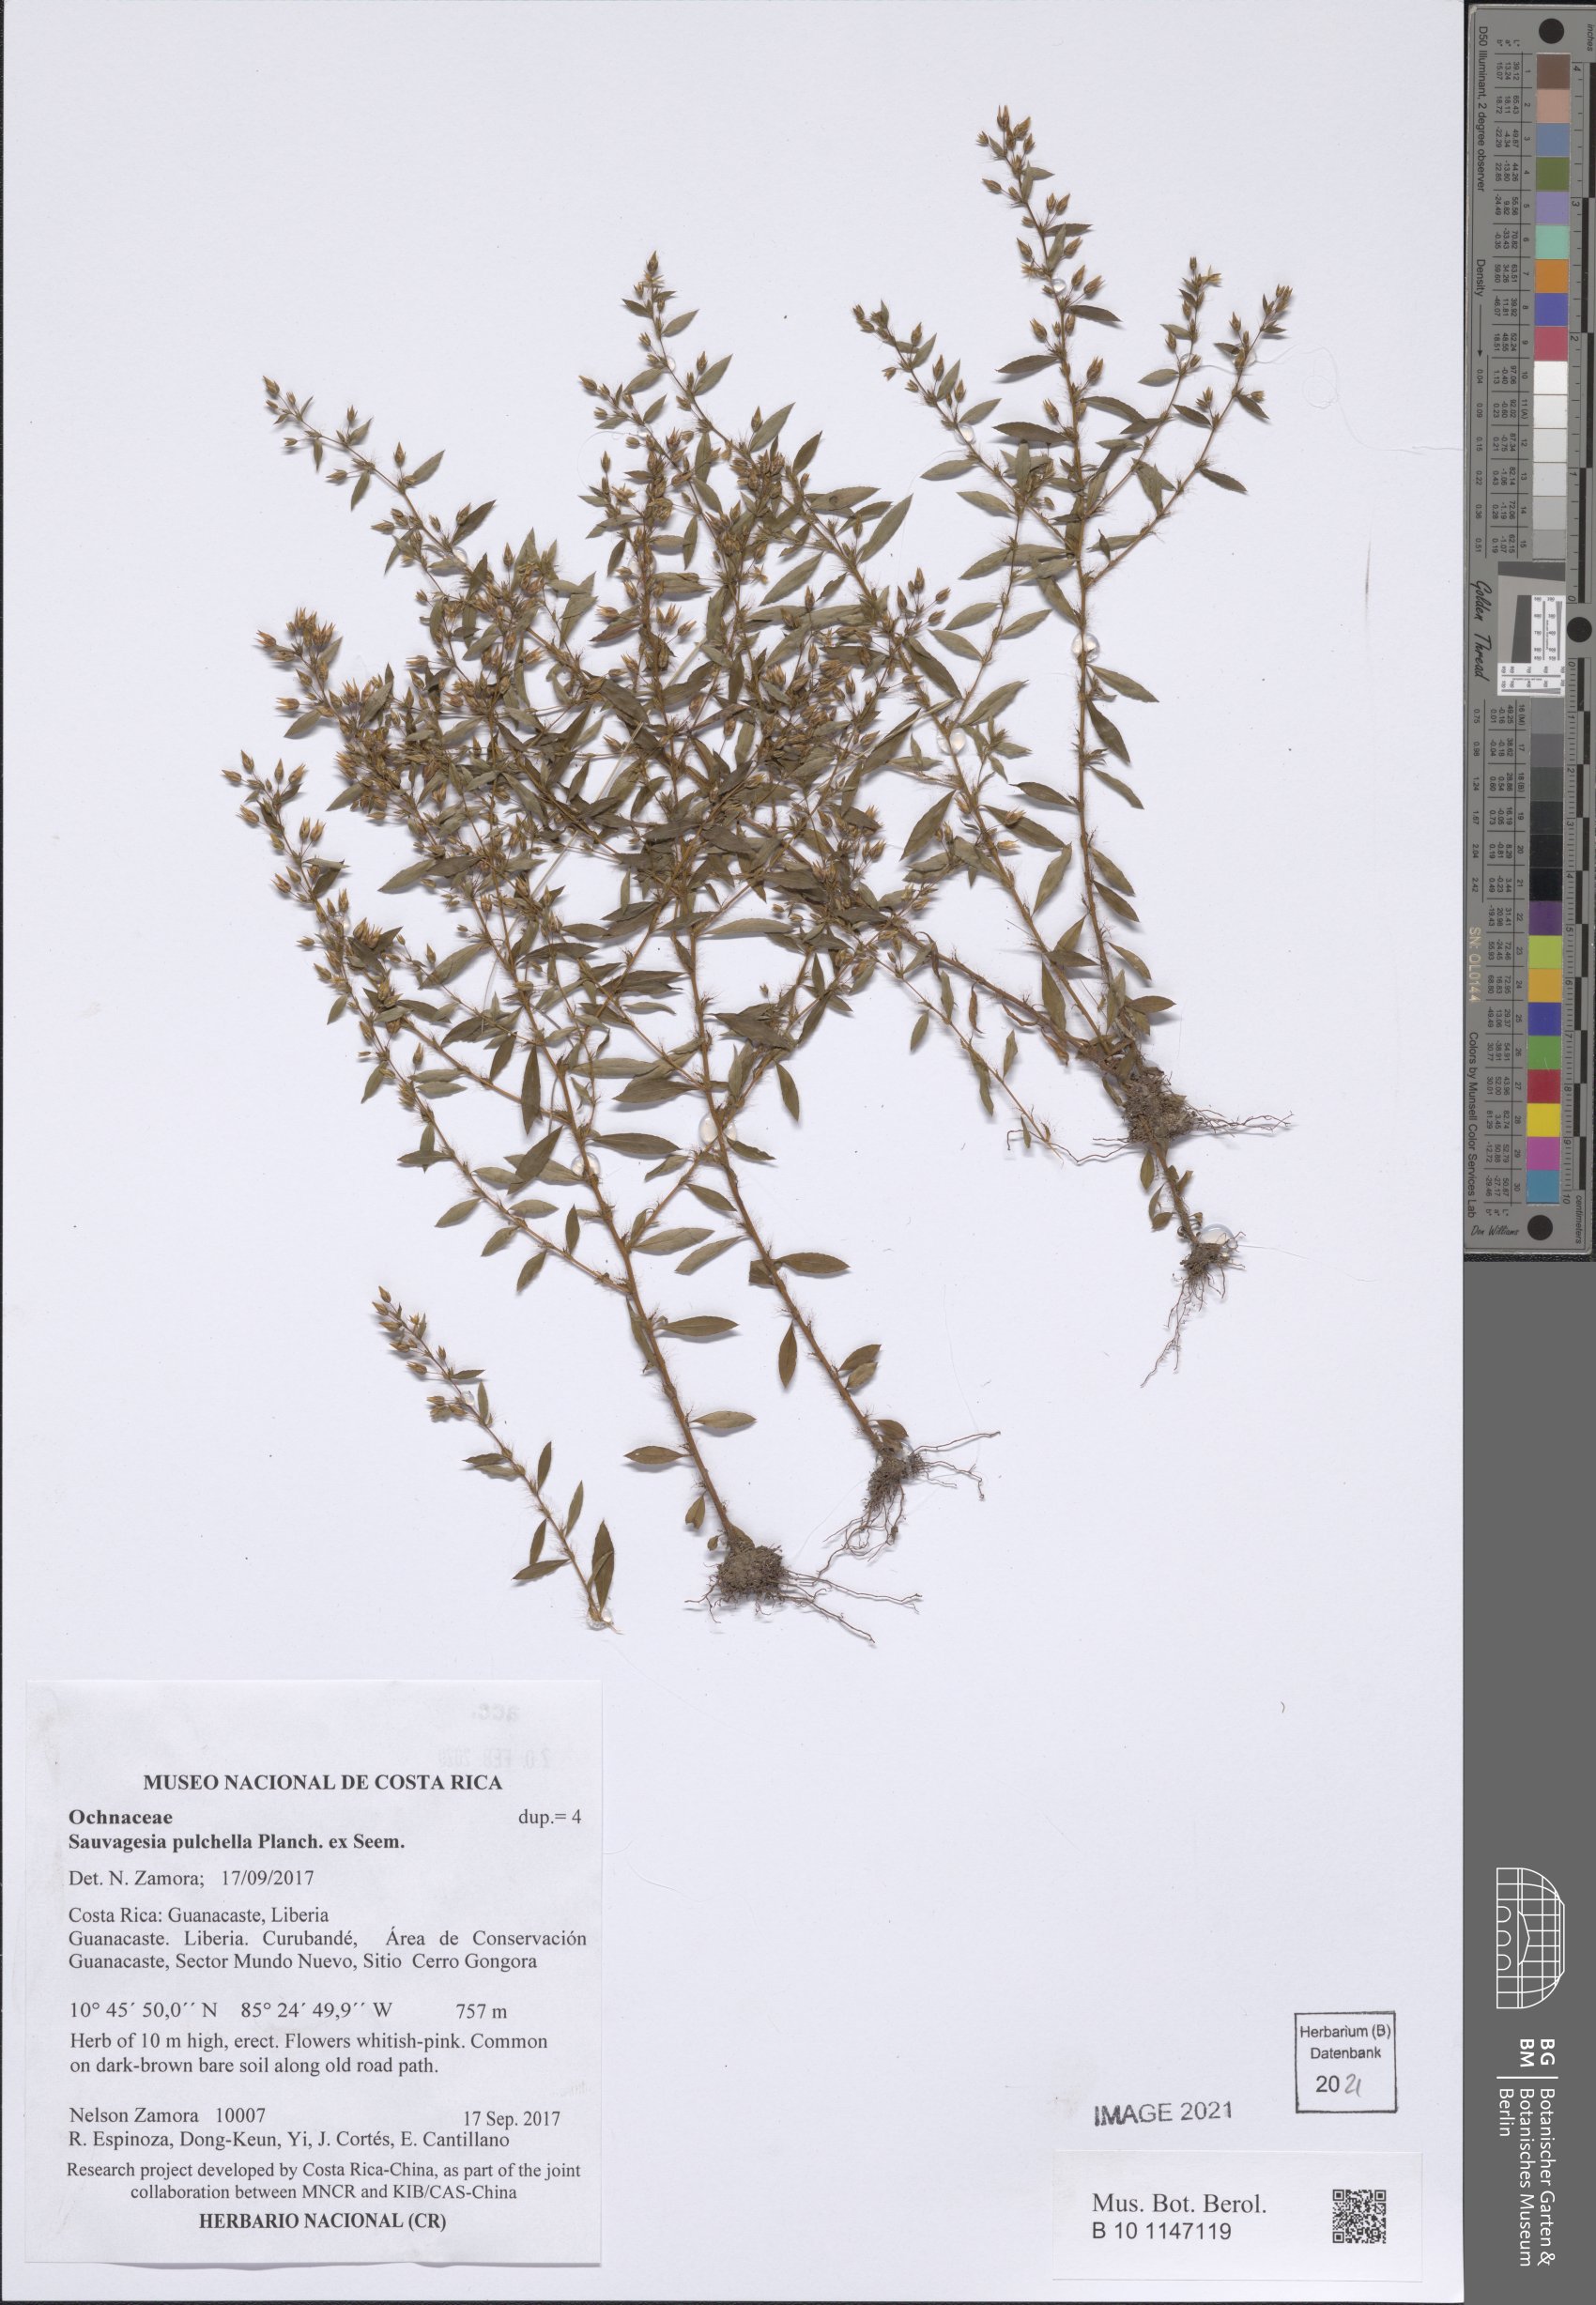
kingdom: Plantae
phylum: Tracheophyta
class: Magnoliopsida
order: Malpighiales
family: Ochnaceae
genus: Sauvagesia
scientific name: Sauvagesia pulchella
